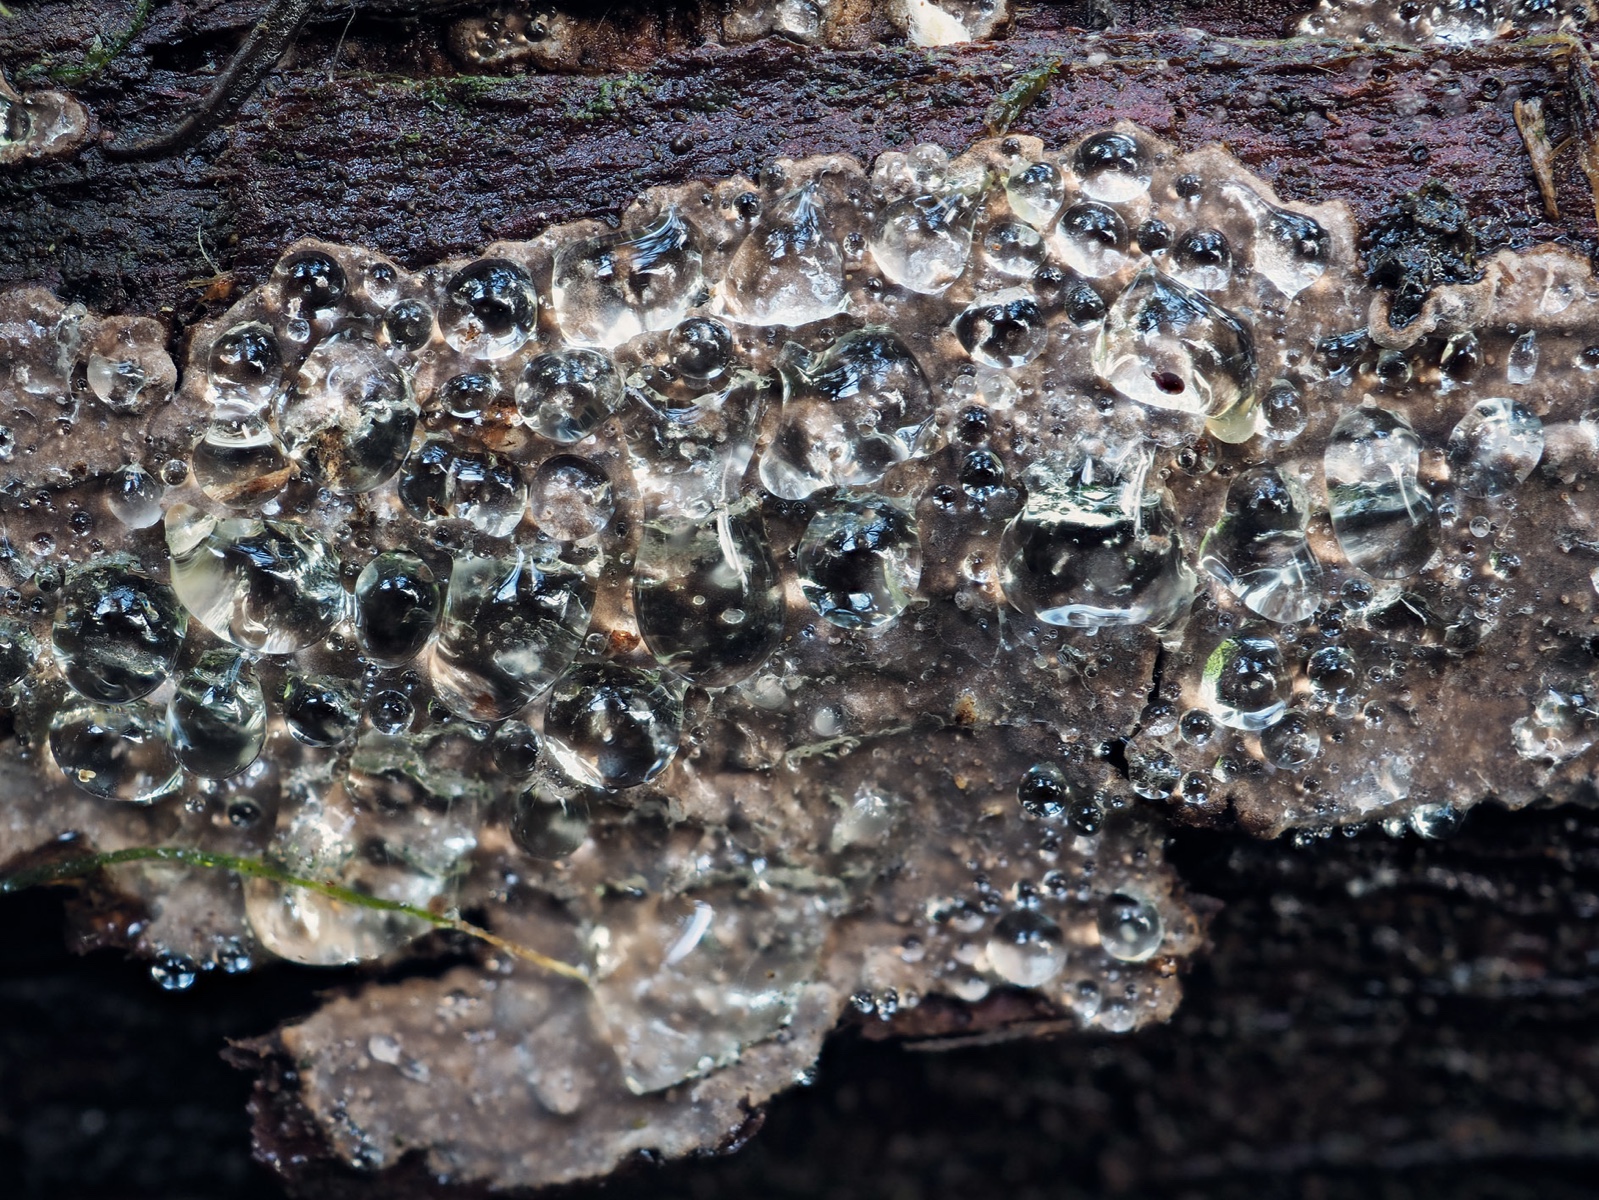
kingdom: Fungi
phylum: Basidiomycota
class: Agaricomycetes
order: Russulales
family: Echinodontiaceae
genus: Amylostereum
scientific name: Amylostereum laevigatum
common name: ene-lædersvamp
